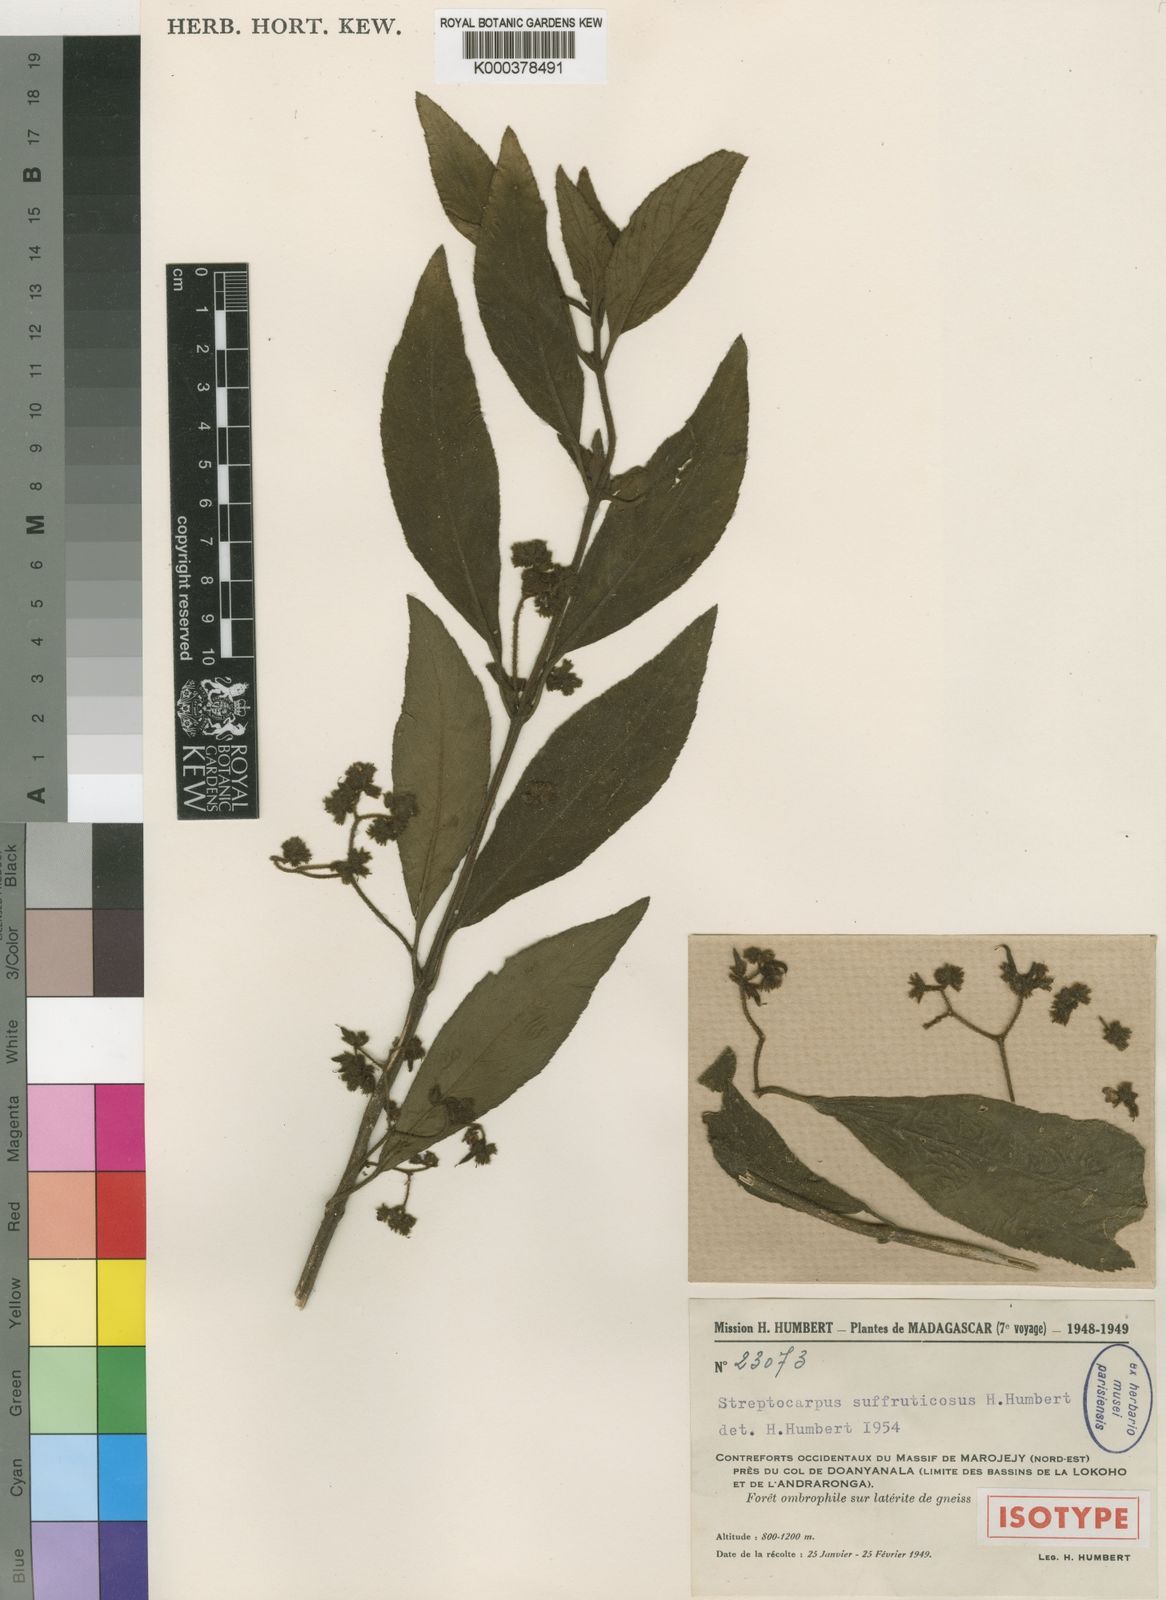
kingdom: Plantae
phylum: Tracheophyta
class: Magnoliopsida
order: Lamiales
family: Gesneriaceae
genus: Streptocarpus
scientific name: Streptocarpus suffruticosus
